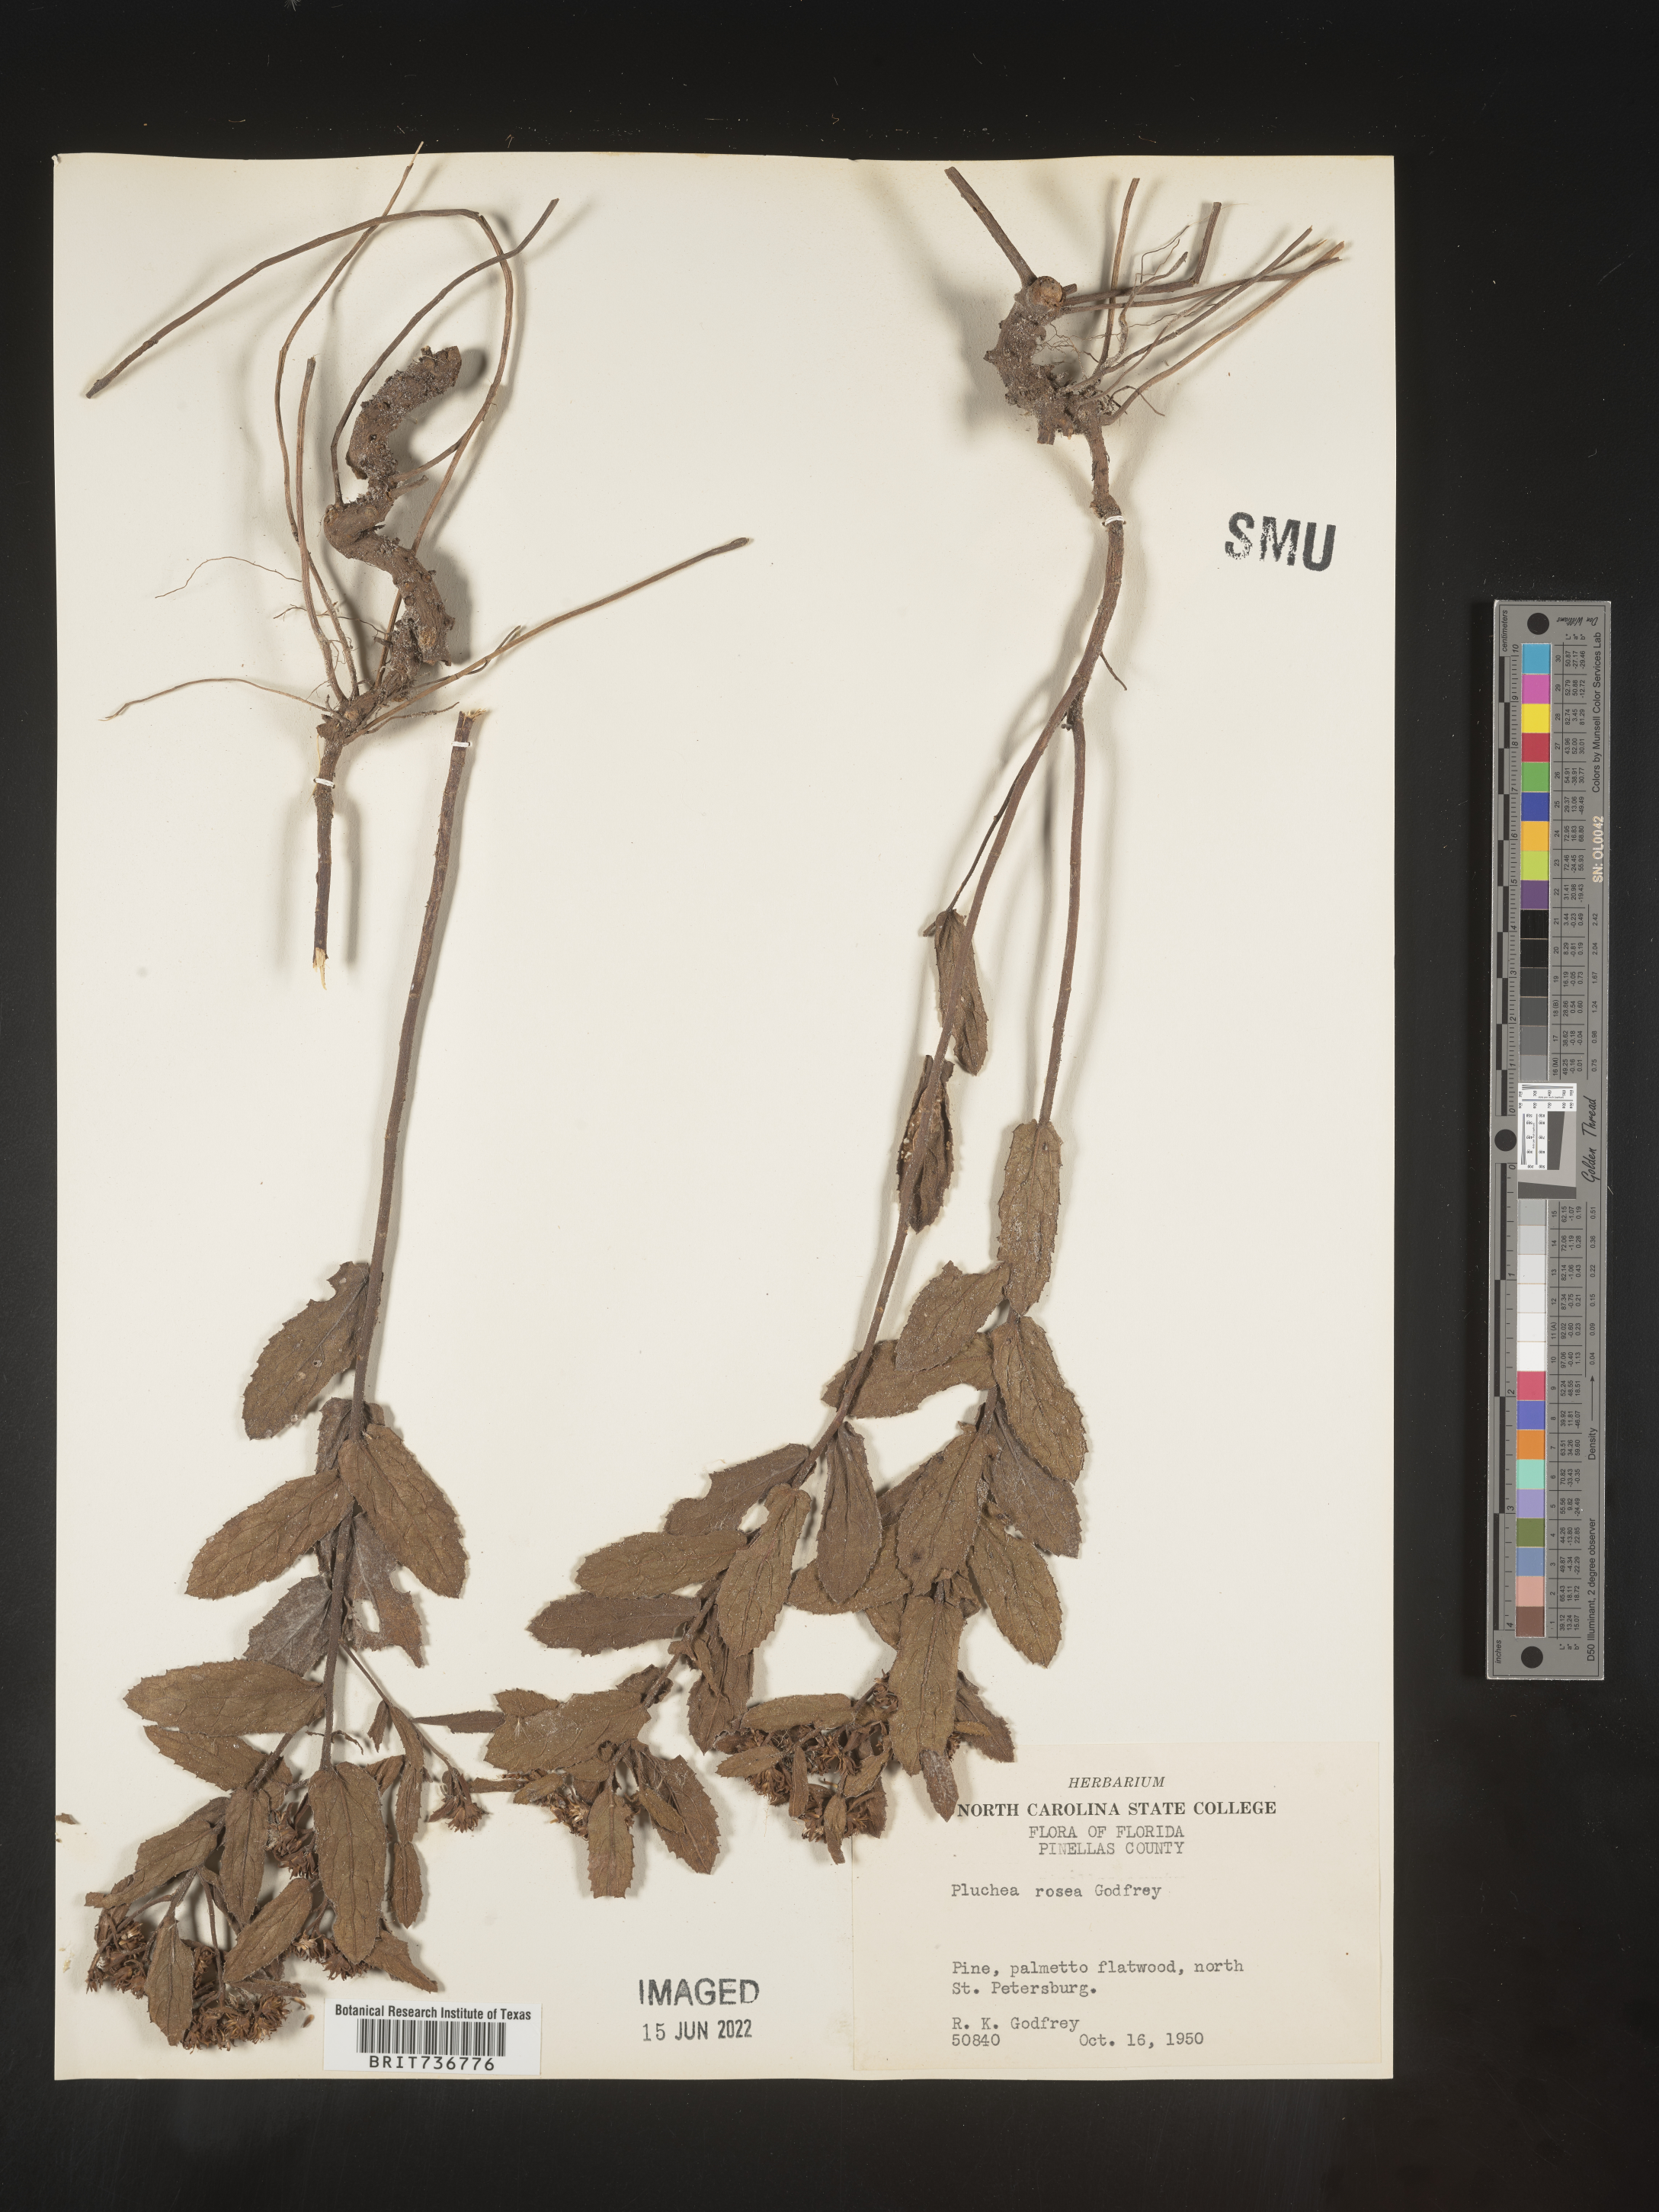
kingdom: Plantae
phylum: Tracheophyta
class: Magnoliopsida
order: Asterales
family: Asteraceae
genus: Pluchea
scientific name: Pluchea baccharis
